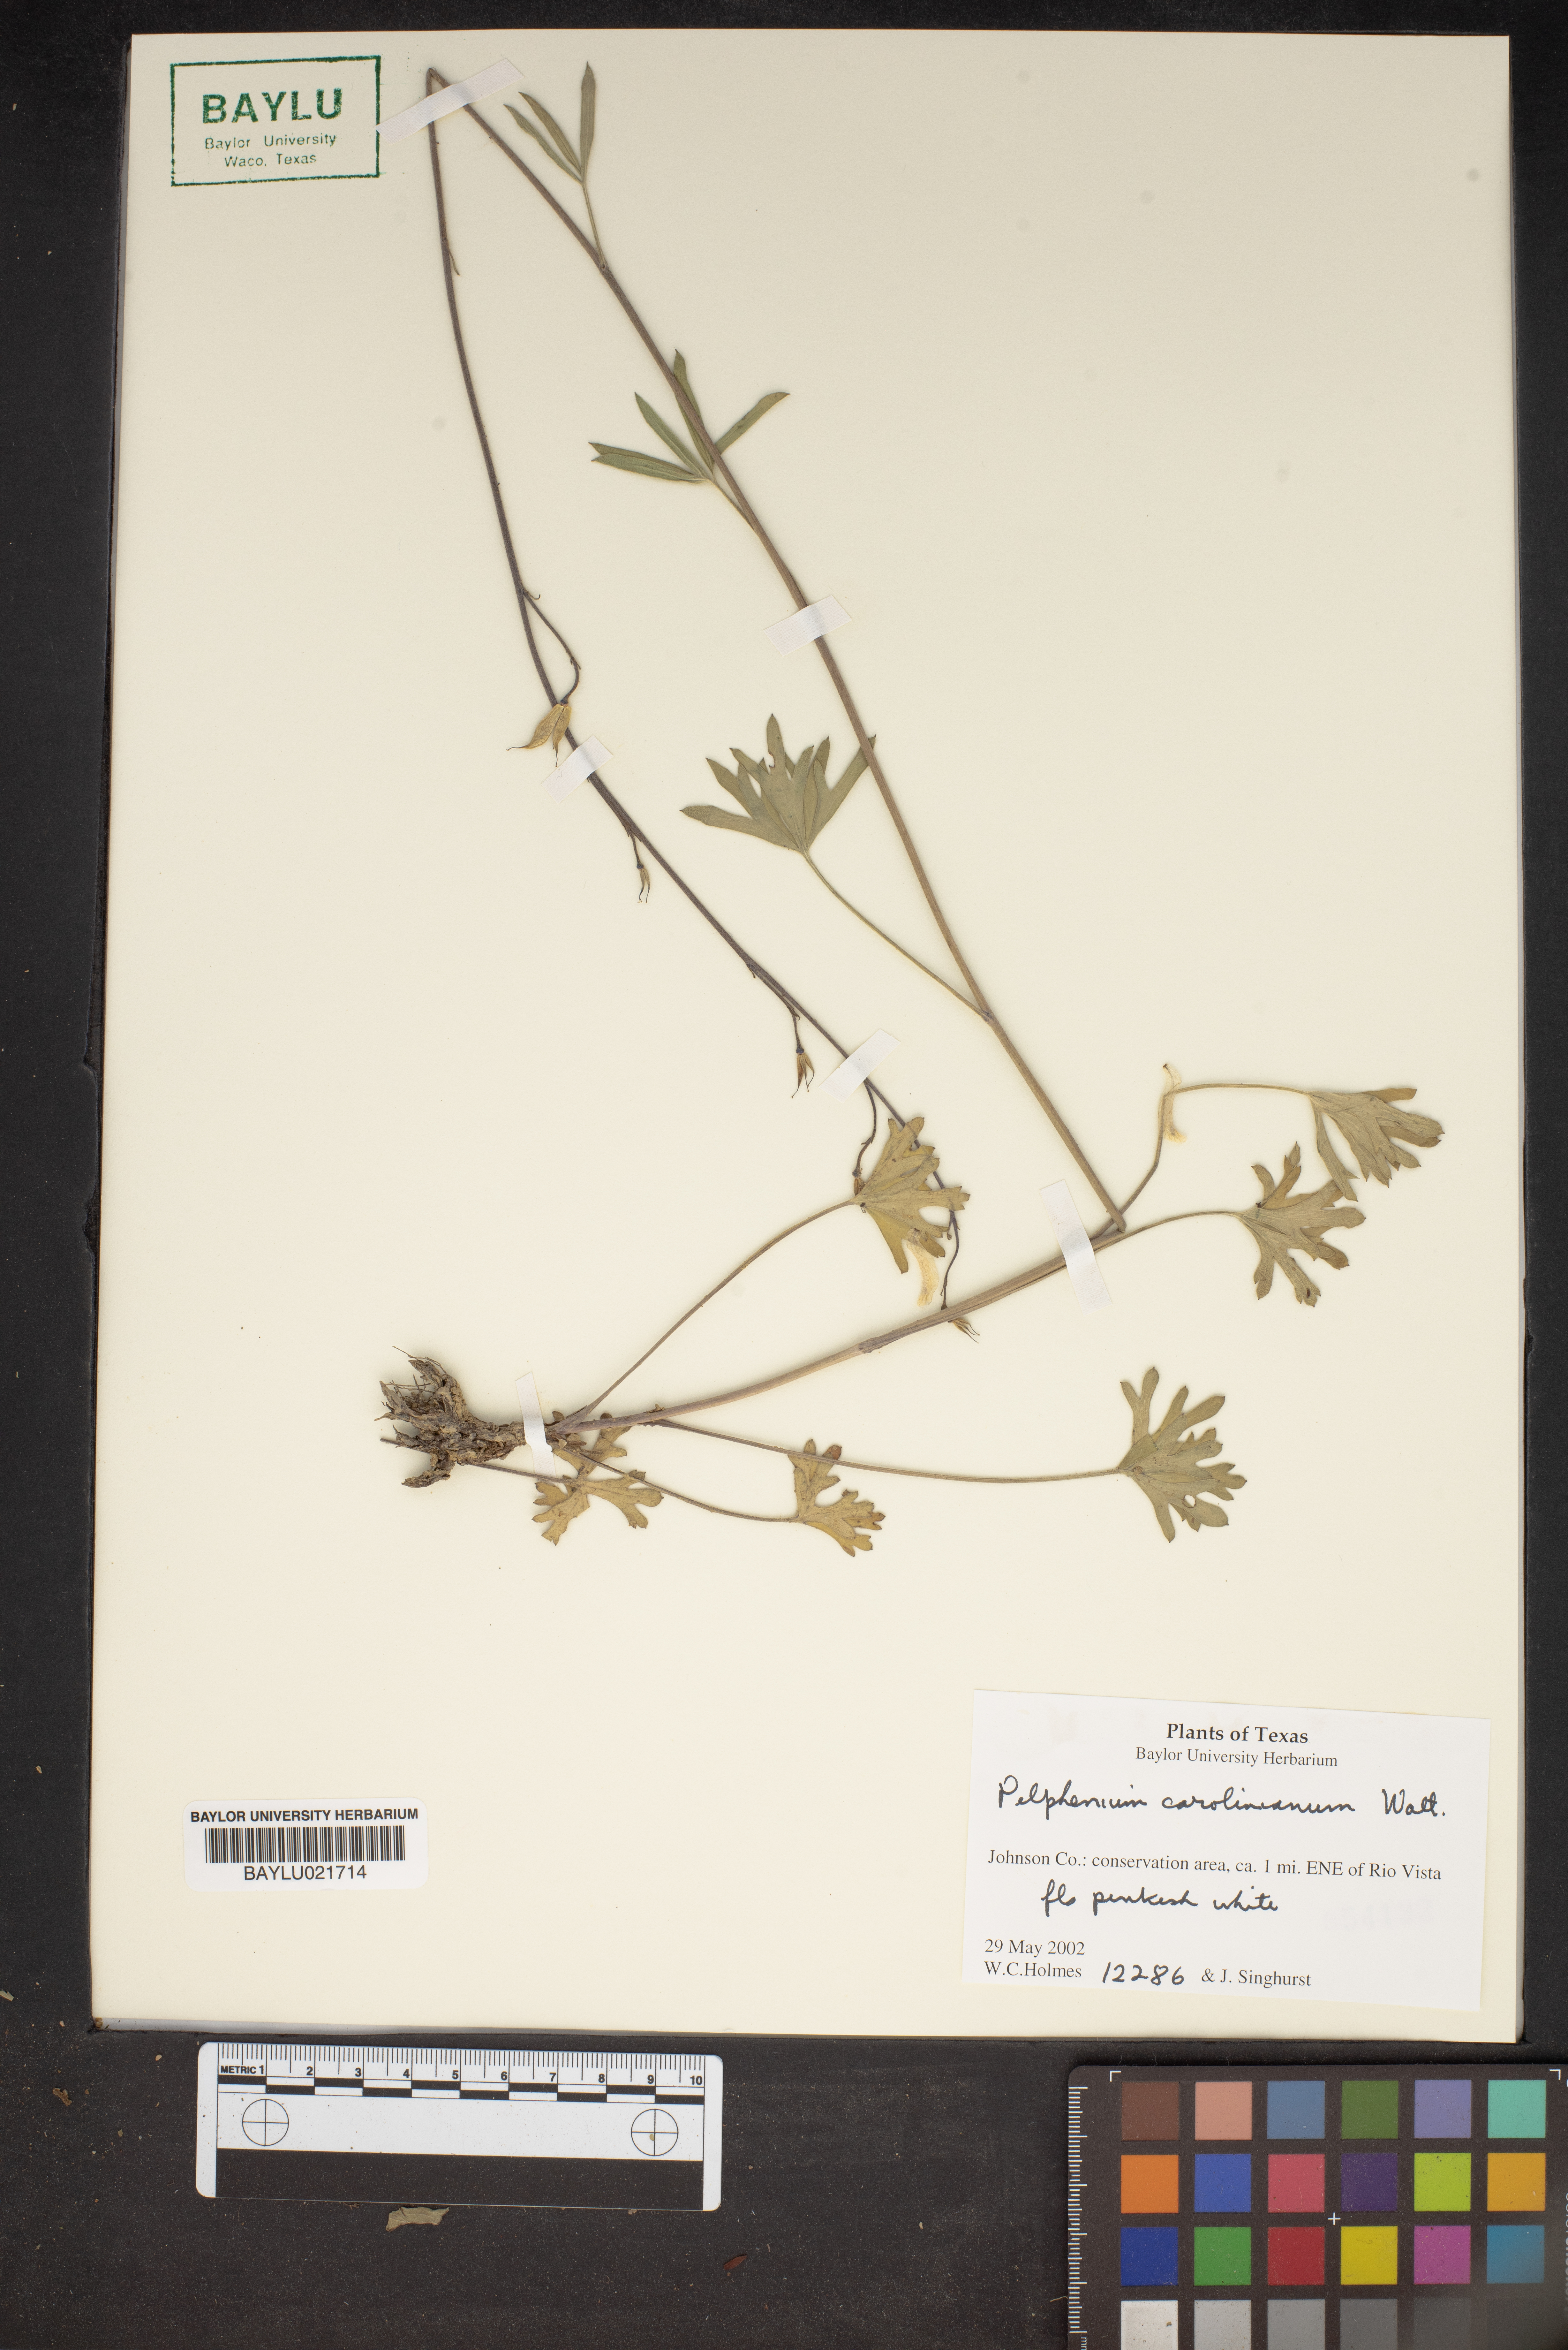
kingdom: Plantae
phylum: Tracheophyta
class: Magnoliopsida
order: Ranunculales
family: Ranunculaceae
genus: Delphinium
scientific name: Delphinium carolinianum
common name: Carolina larkspur
